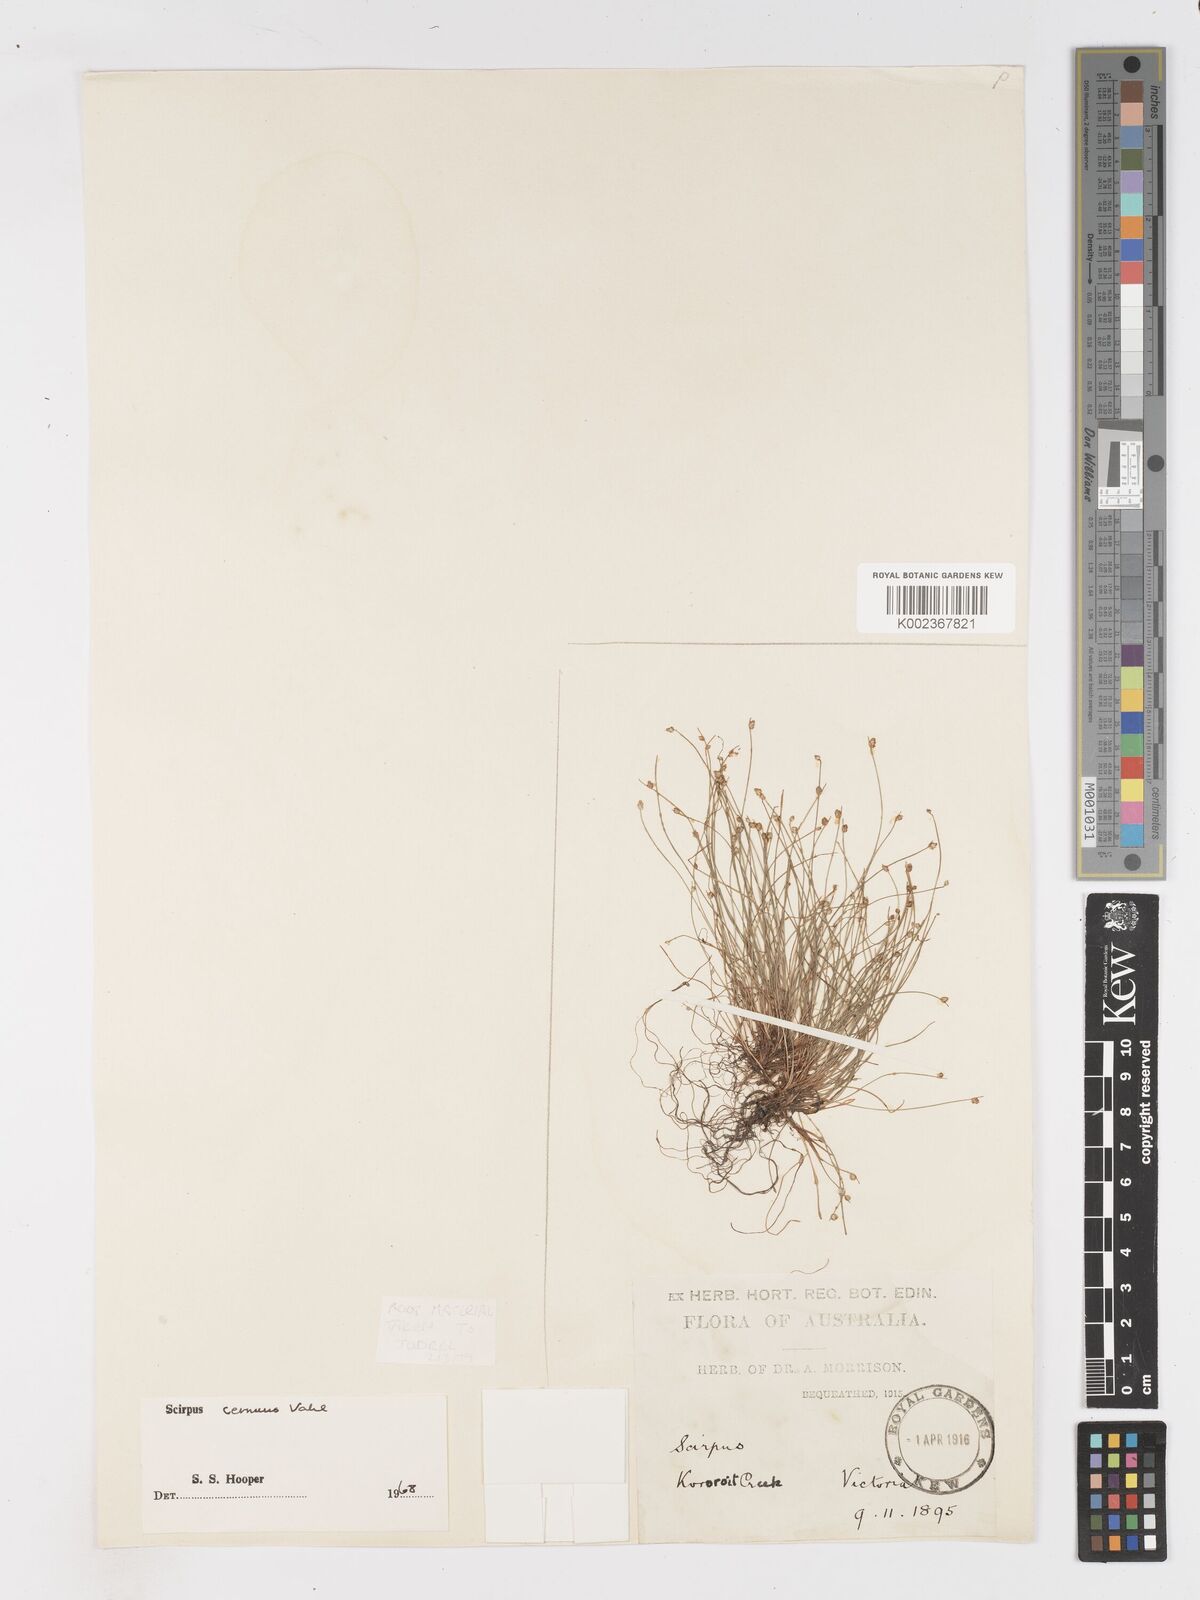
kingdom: Plantae
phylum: Tracheophyta
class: Liliopsida
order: Poales
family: Cyperaceae
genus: Isolepis
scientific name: Isolepis cernua
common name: Slender club-rush
